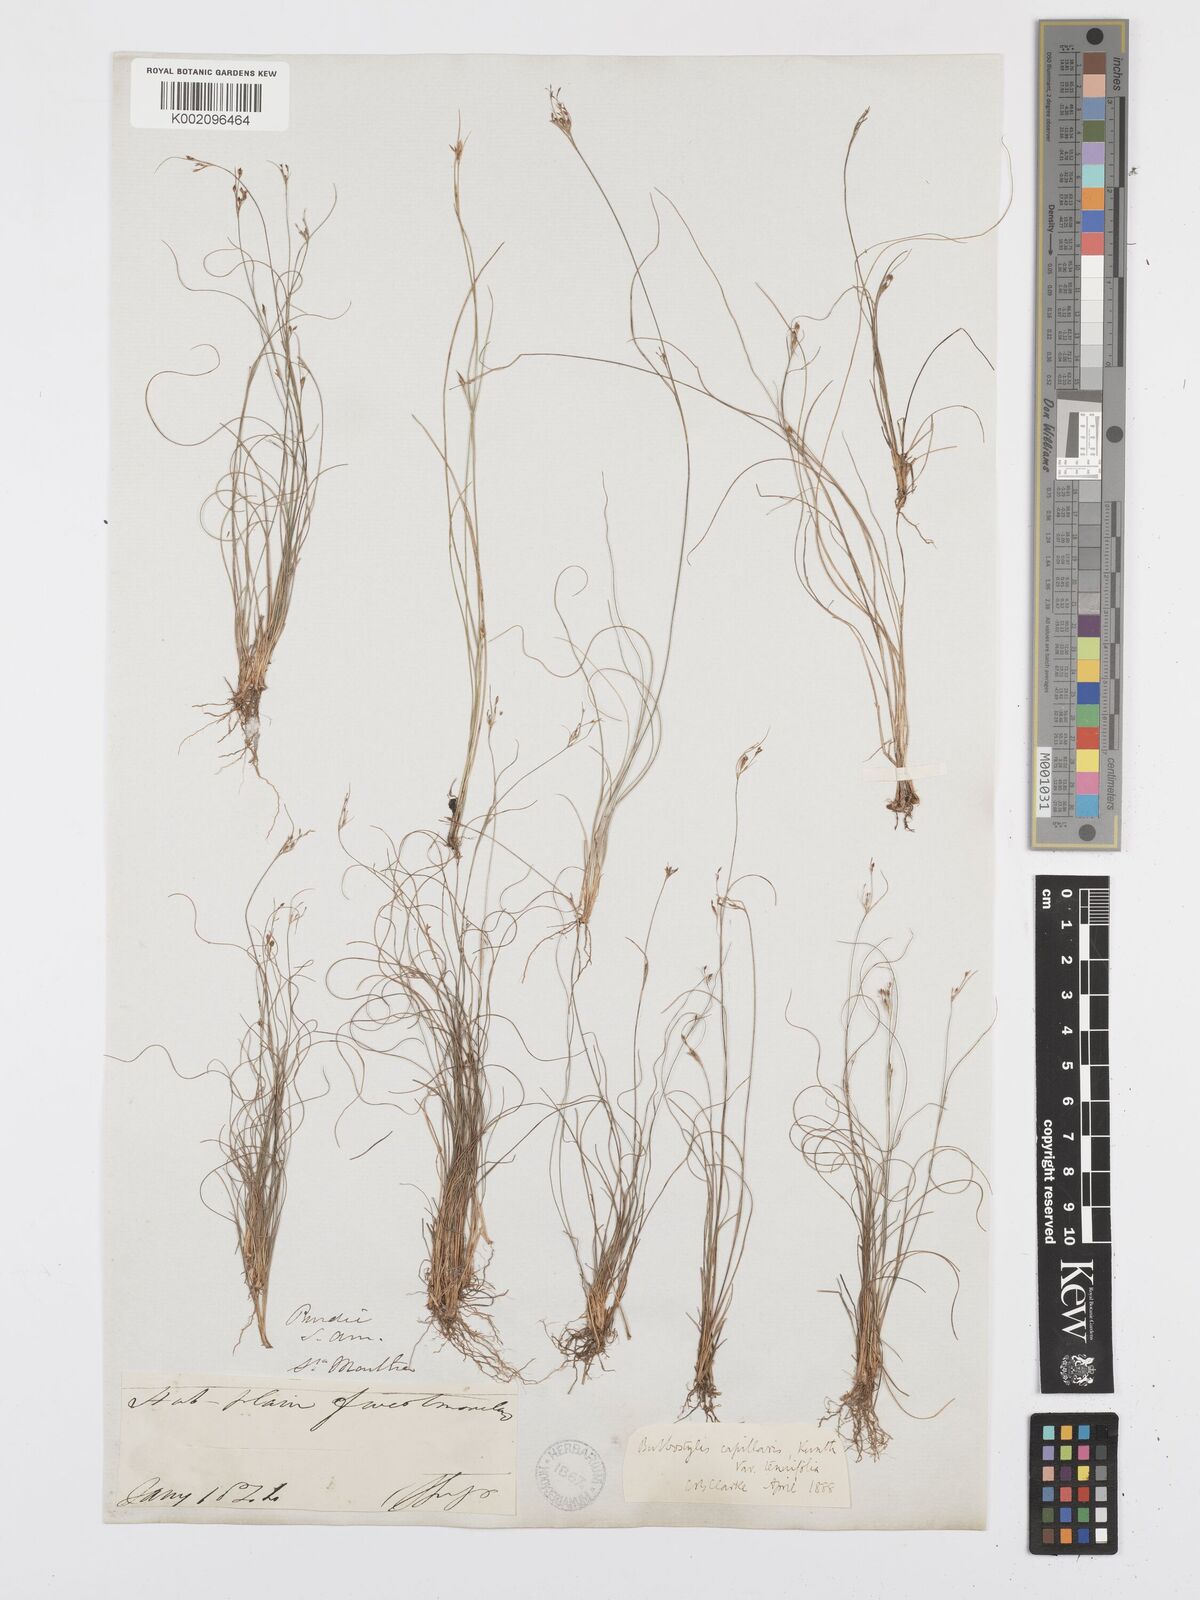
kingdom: Plantae
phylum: Tracheophyta
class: Liliopsida
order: Poales
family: Cyperaceae
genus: Bulbostylis
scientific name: Bulbostylis tenuifolia
